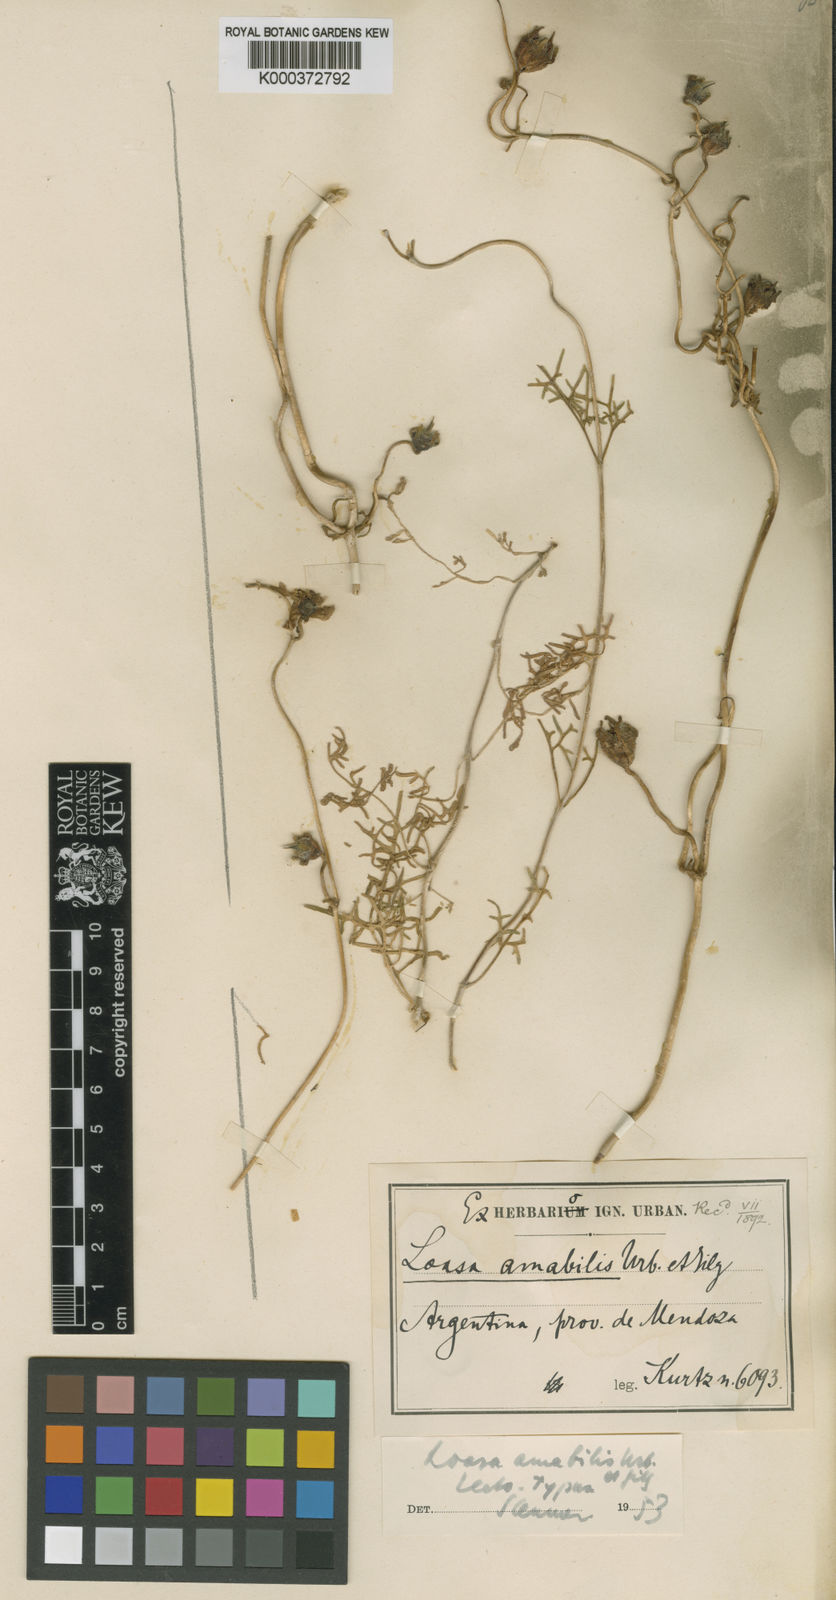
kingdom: Plantae
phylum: Tracheophyta
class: Magnoliopsida
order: Cornales
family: Loasaceae
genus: Pinnasa
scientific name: Pinnasa amabilis
